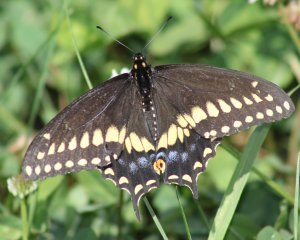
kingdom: Animalia
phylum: Arthropoda
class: Insecta
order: Lepidoptera
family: Papilionidae
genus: Papilio
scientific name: Papilio polyxenes
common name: Black Swallowtail
